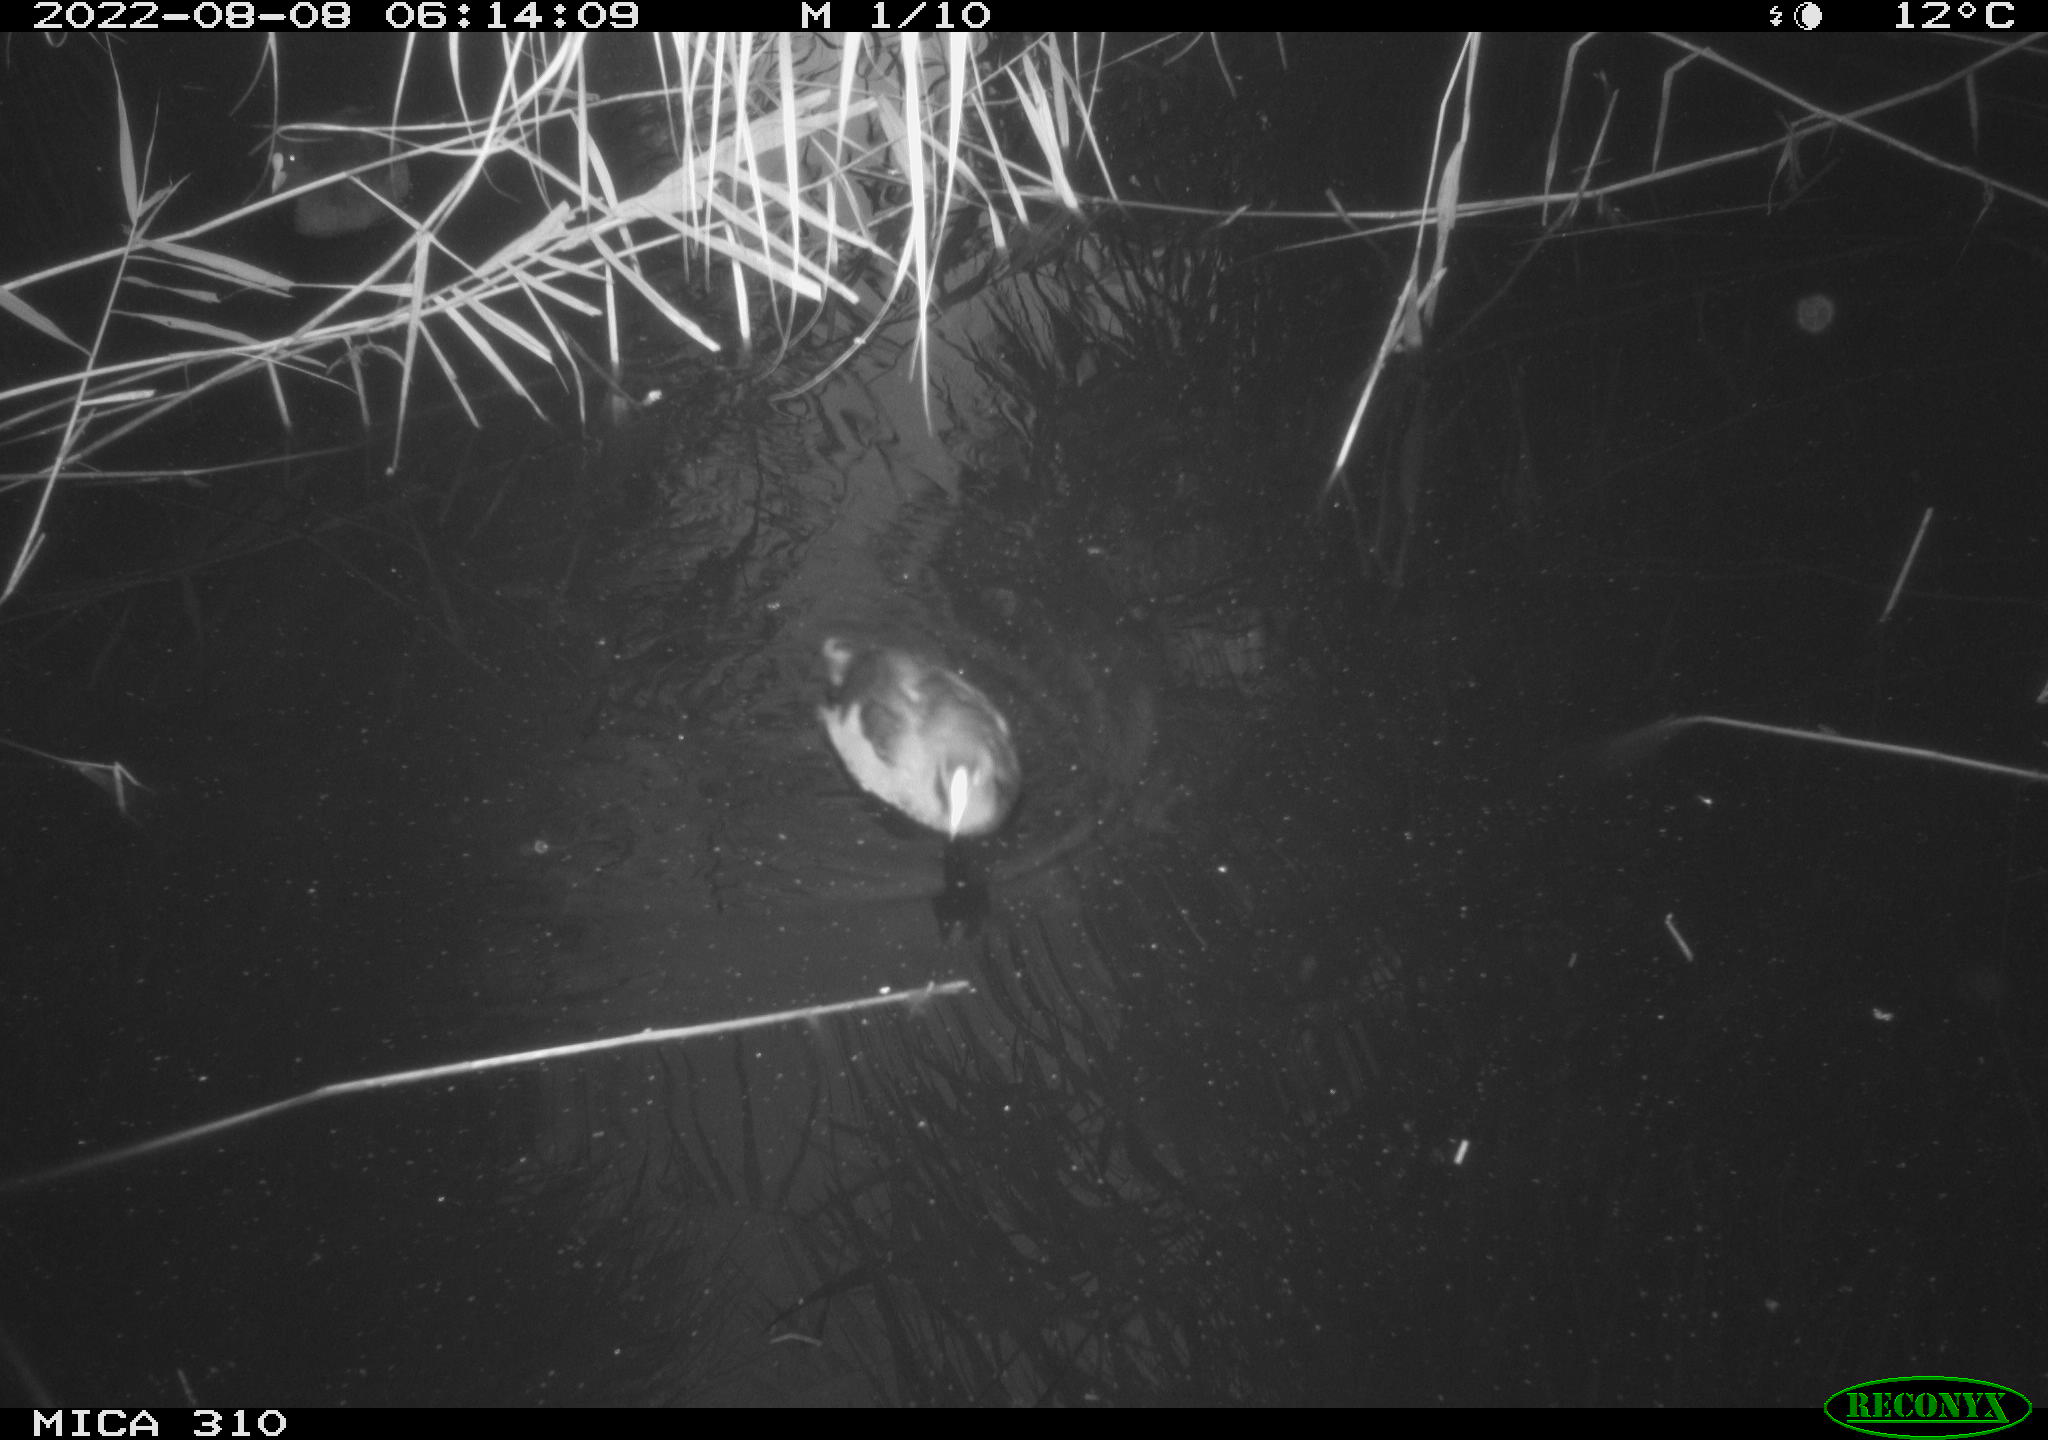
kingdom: Animalia
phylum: Chordata
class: Aves
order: Gruiformes
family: Rallidae
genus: Fulica
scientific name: Fulica atra
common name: Eurasian coot
